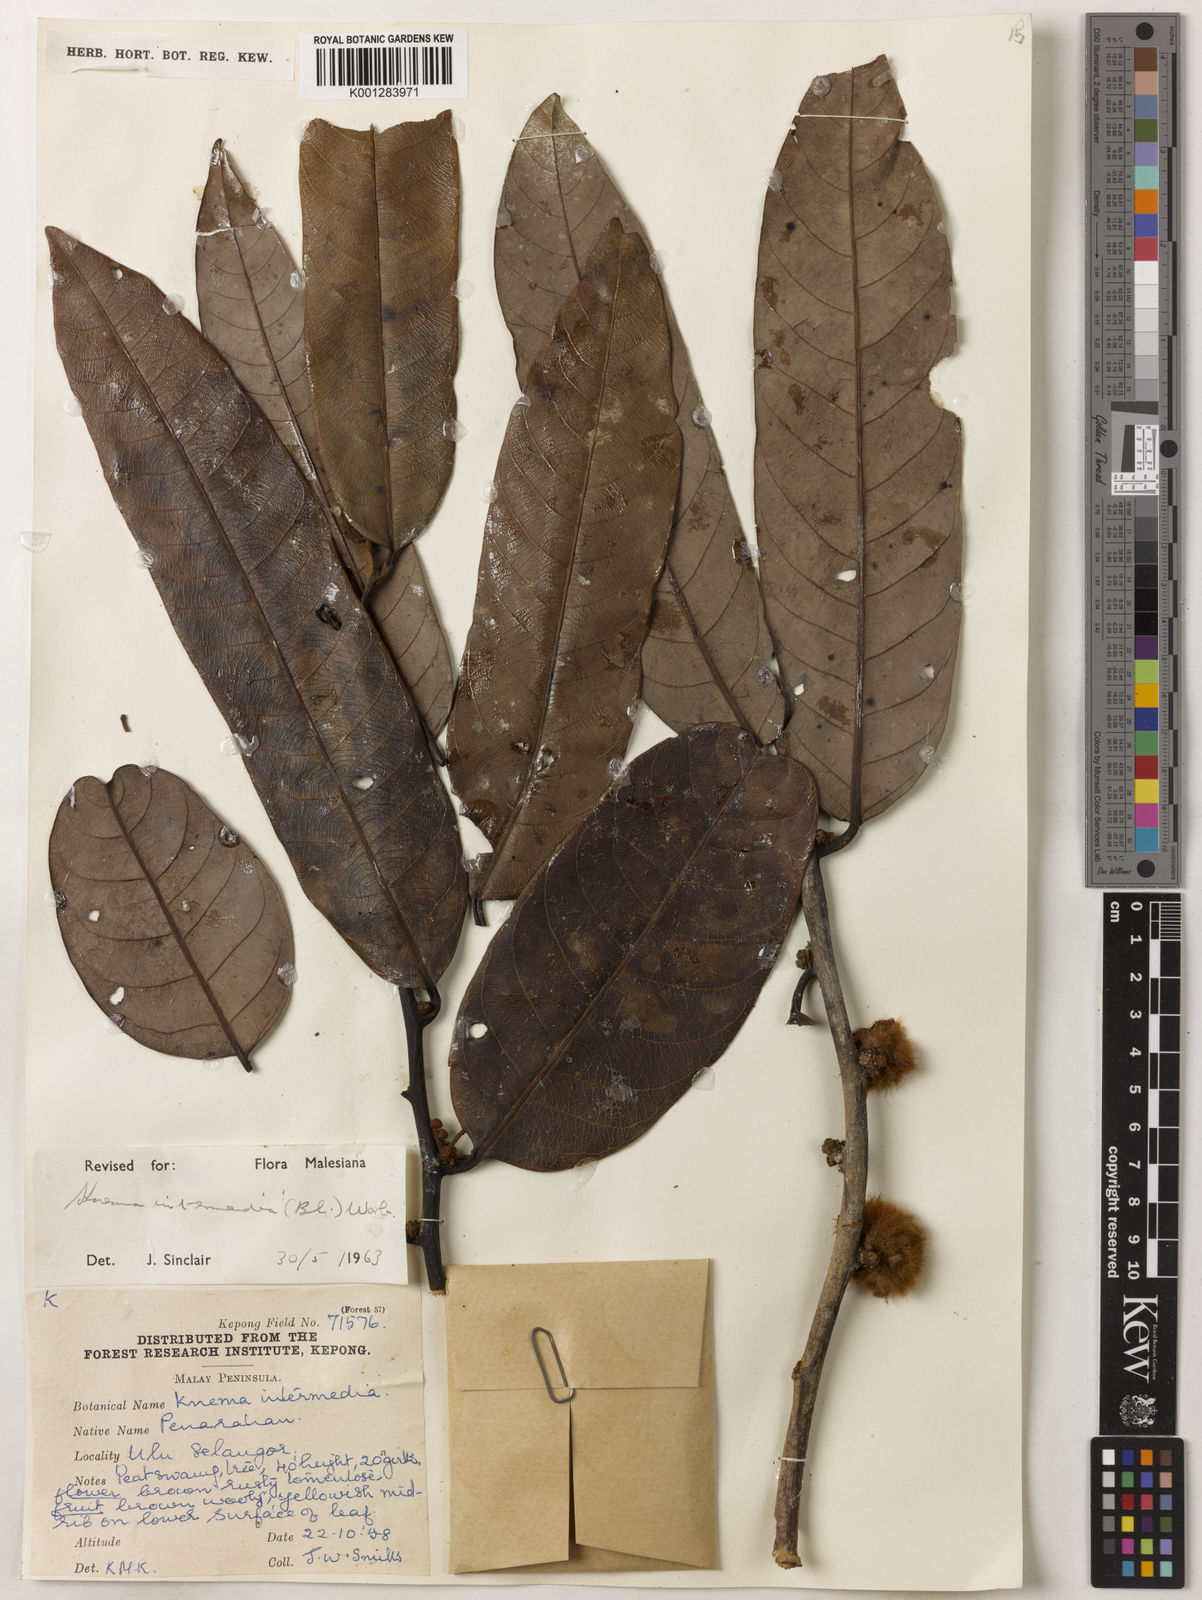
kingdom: Plantae
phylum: Tracheophyta
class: Magnoliopsida
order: Magnoliales
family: Myristicaceae
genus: Knema
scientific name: Knema intermedia
